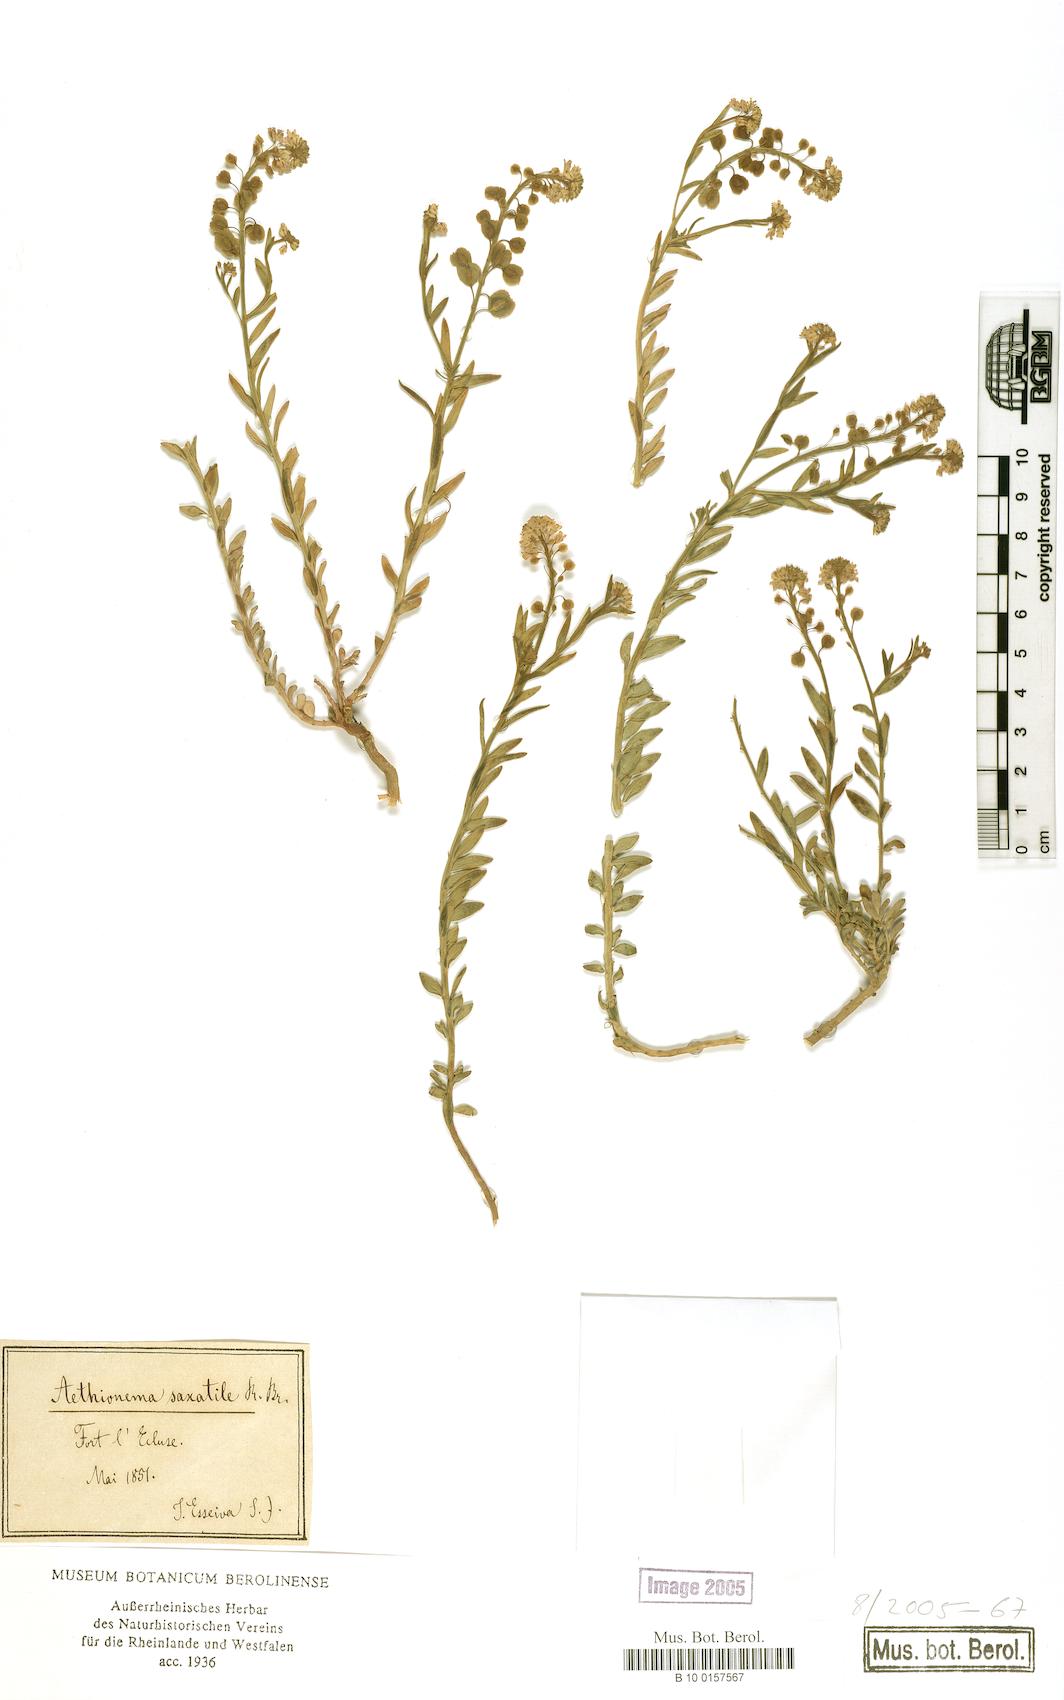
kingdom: Plantae
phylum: Tracheophyta
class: Magnoliopsida
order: Brassicales
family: Brassicaceae
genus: Aethionema
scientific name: Aethionema saxatile
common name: Burnt candytuft
